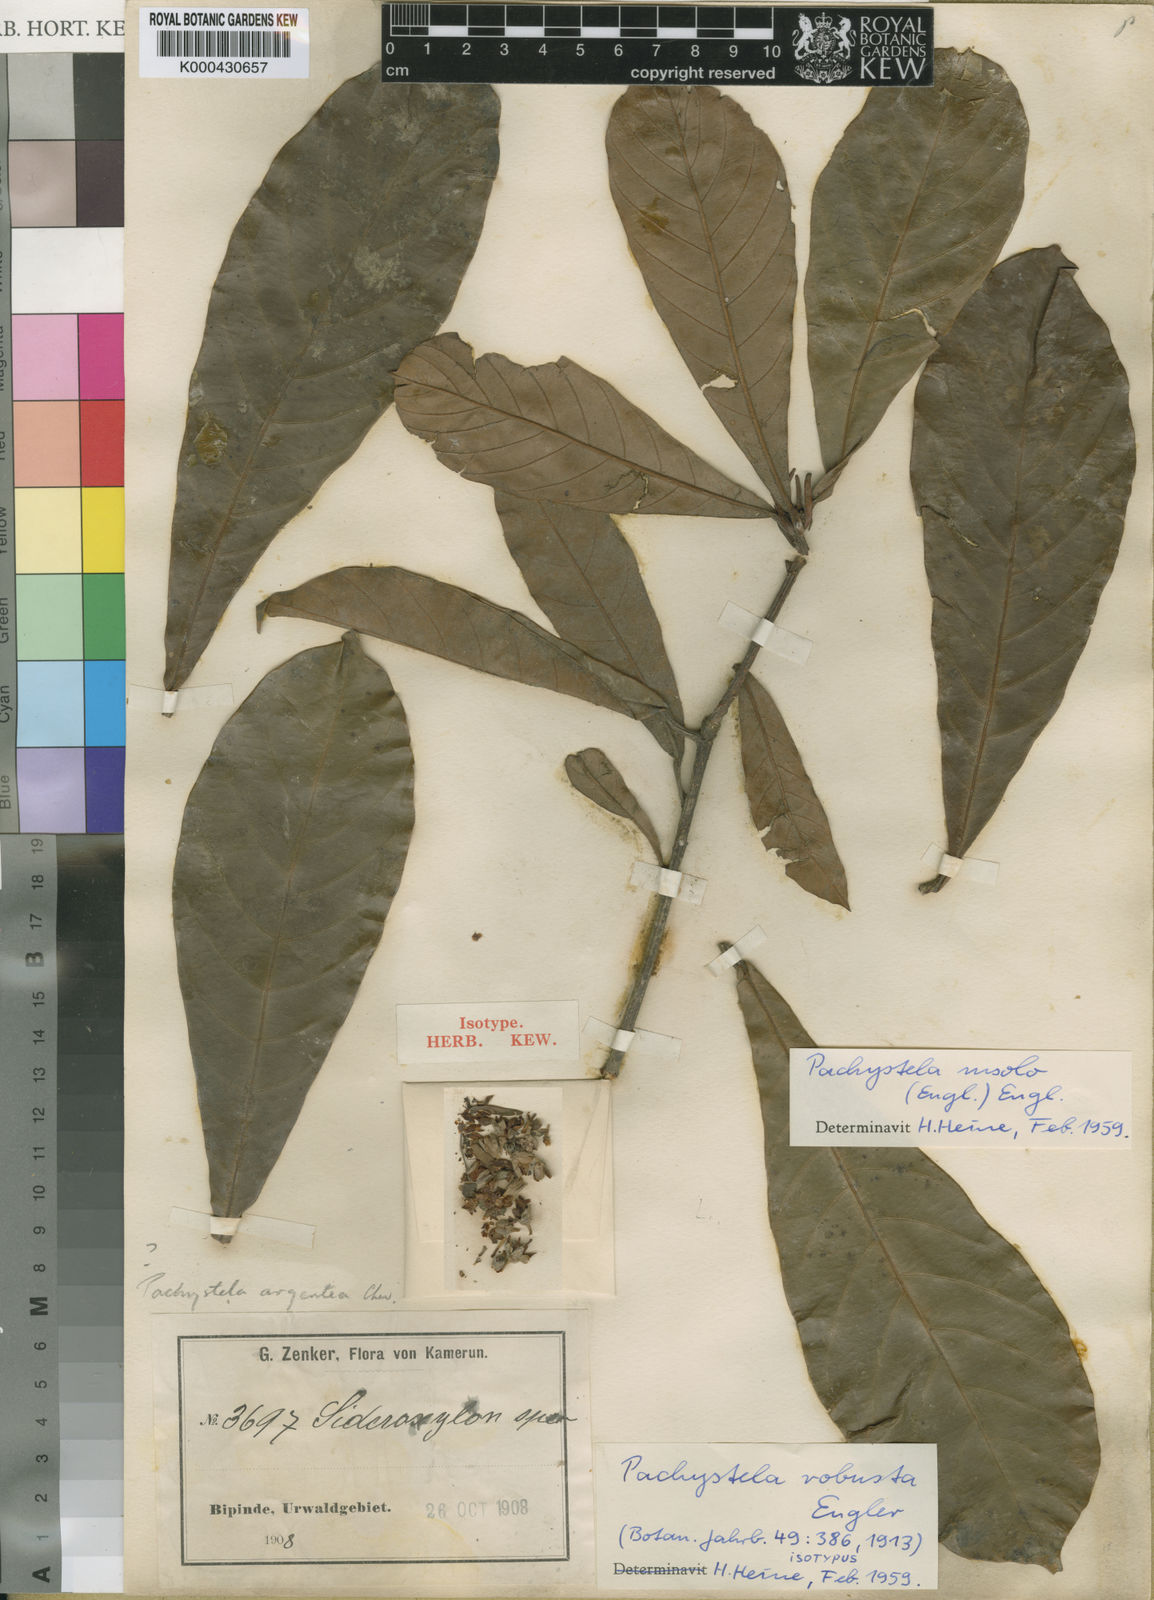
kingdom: Plantae
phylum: Tracheophyta
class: Magnoliopsida
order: Ericales
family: Sapotaceae
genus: Synsepalum
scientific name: Synsepalum msolo
